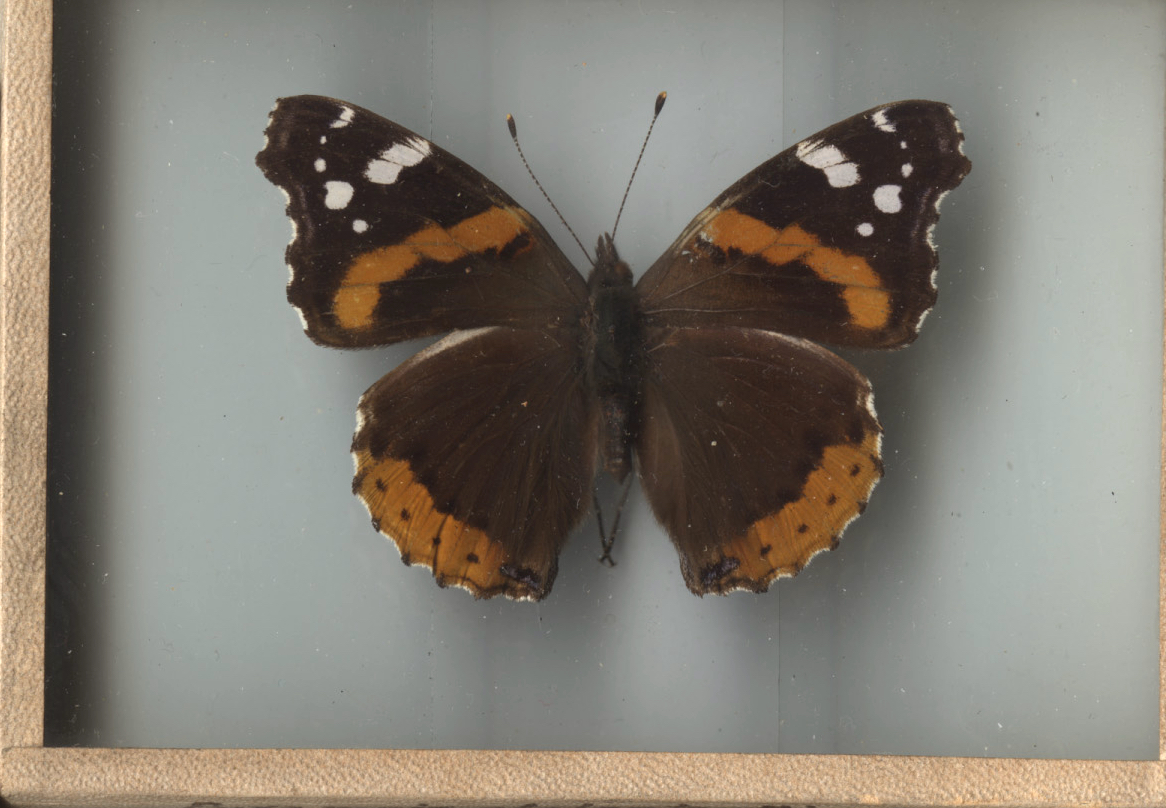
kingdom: Animalia
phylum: Arthropoda
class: Insecta
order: Lepidoptera
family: Nymphalidae
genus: Vanessa
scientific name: Vanessa atalanta
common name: Red Admiral
